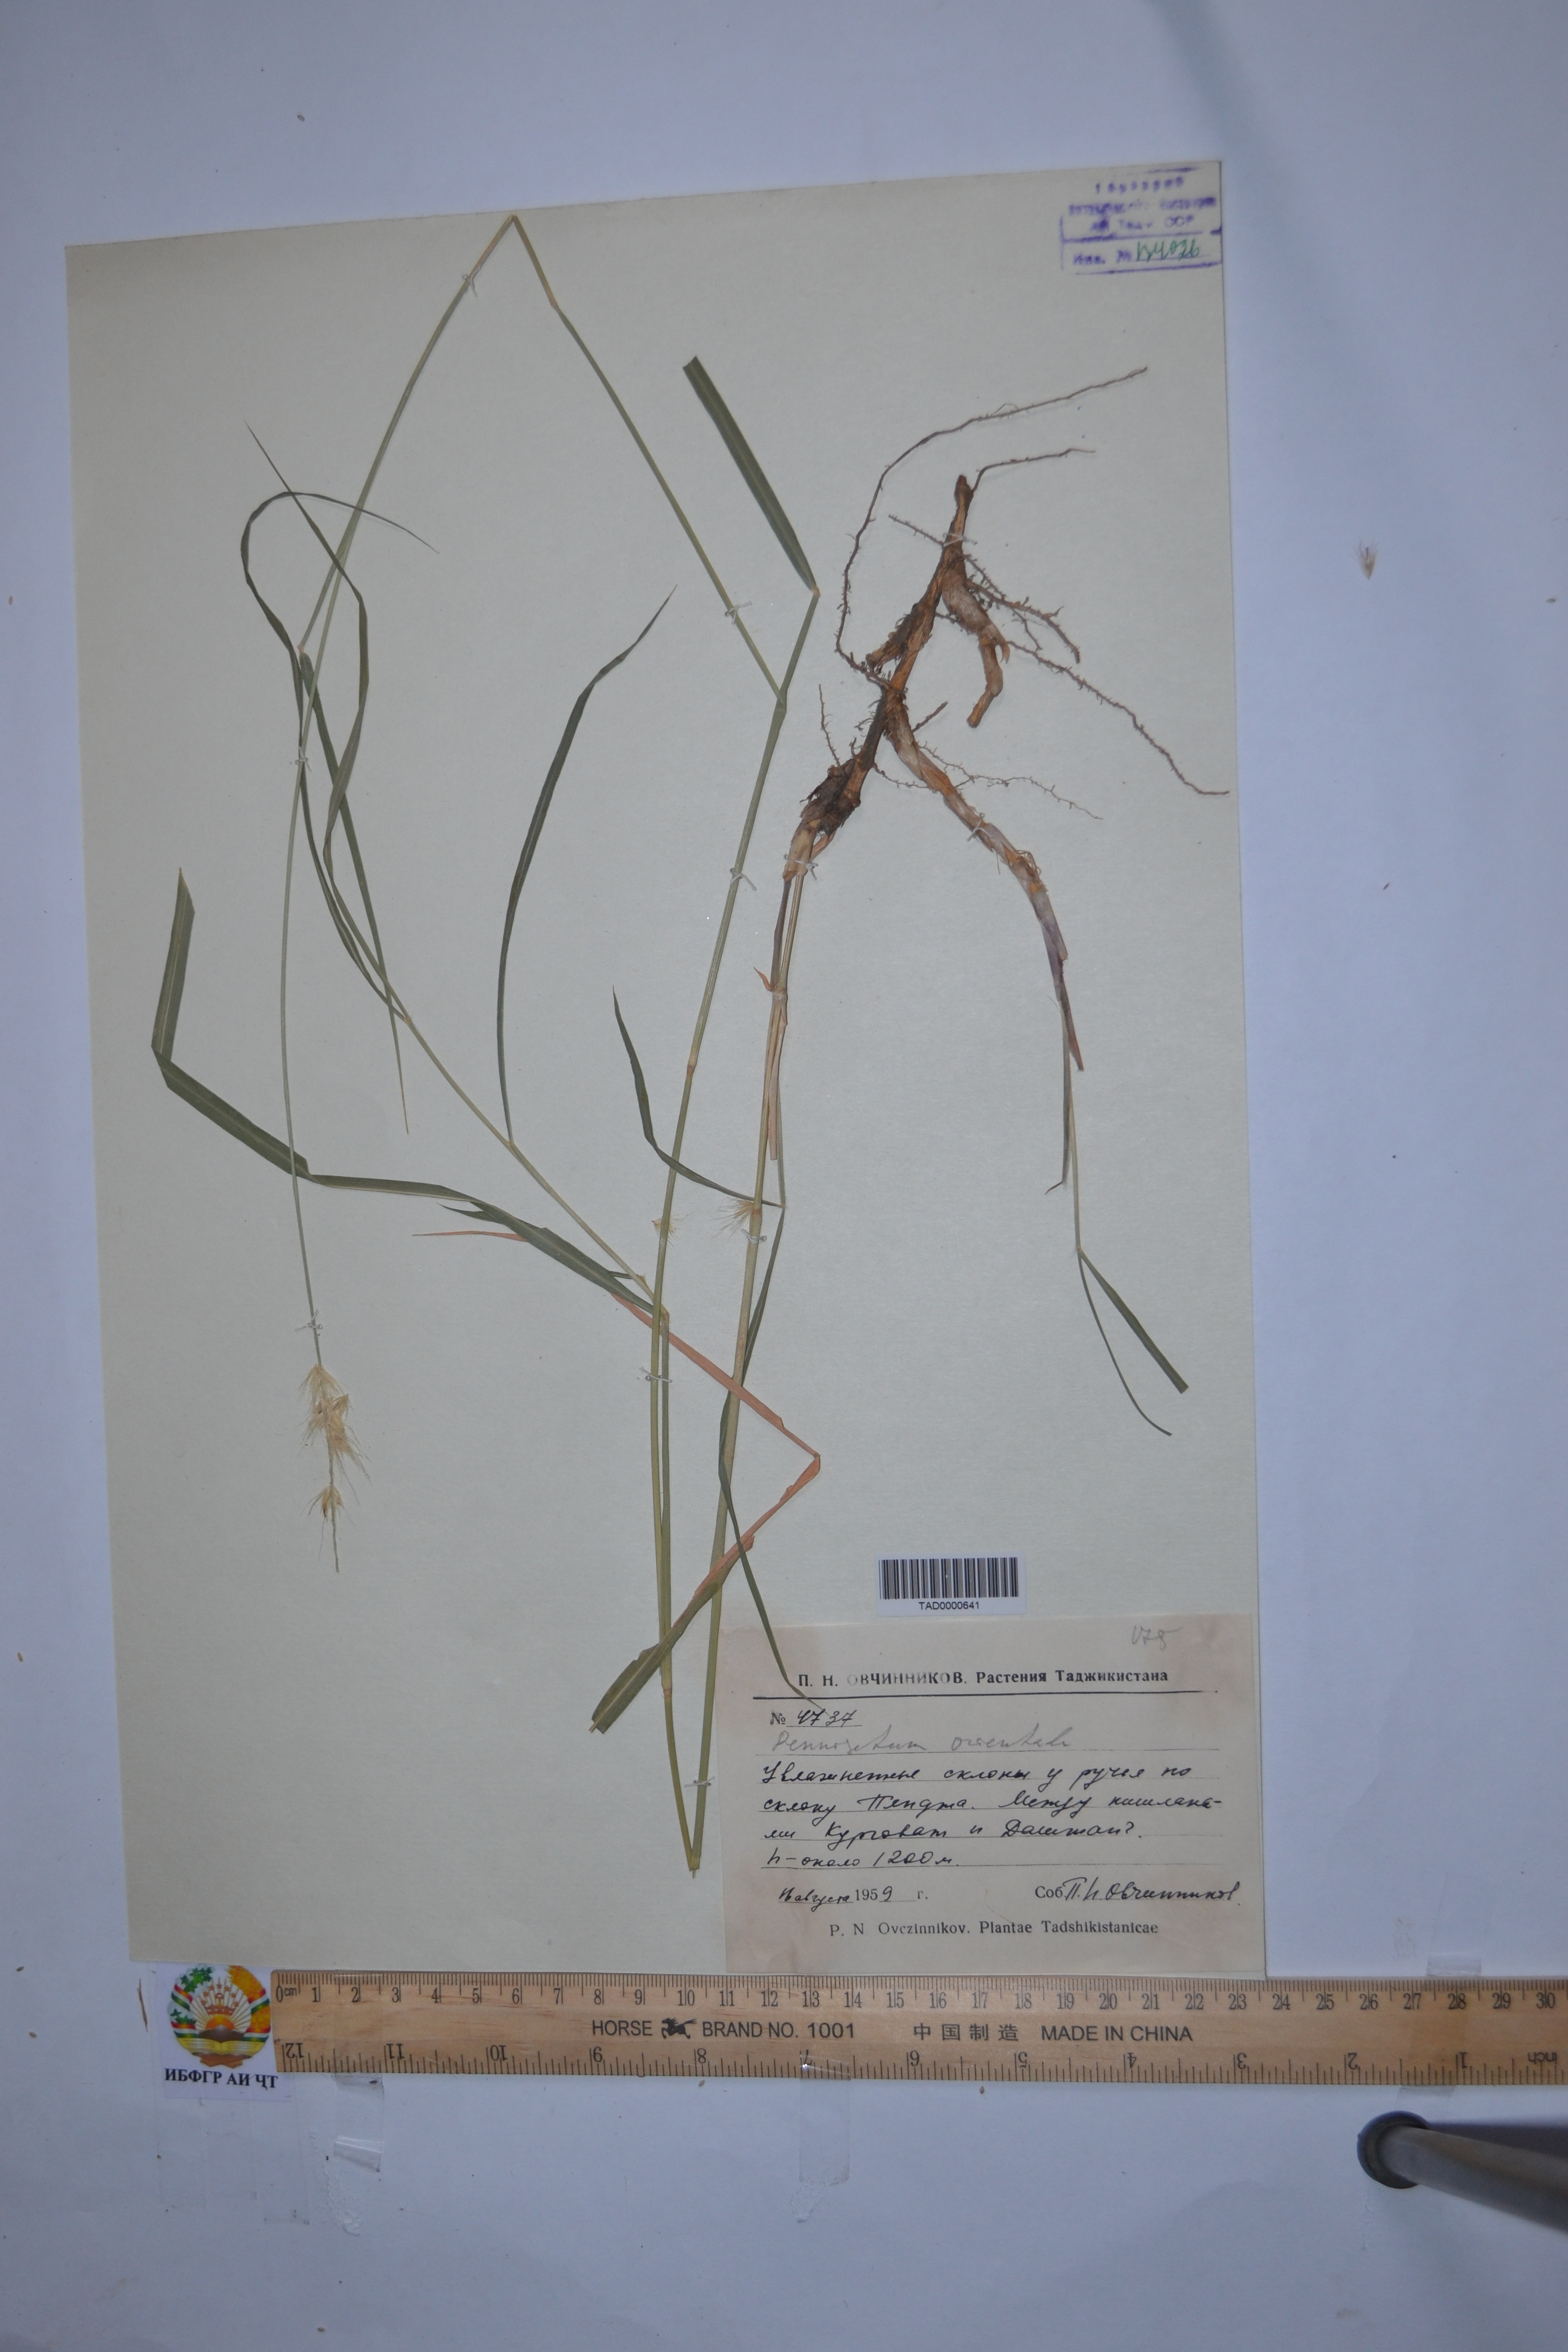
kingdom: Plantae
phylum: Tracheophyta
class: Liliopsida
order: Poales
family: Poaceae
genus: Cenchrus
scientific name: Cenchrus orientalis
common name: Oriental fountain grass
